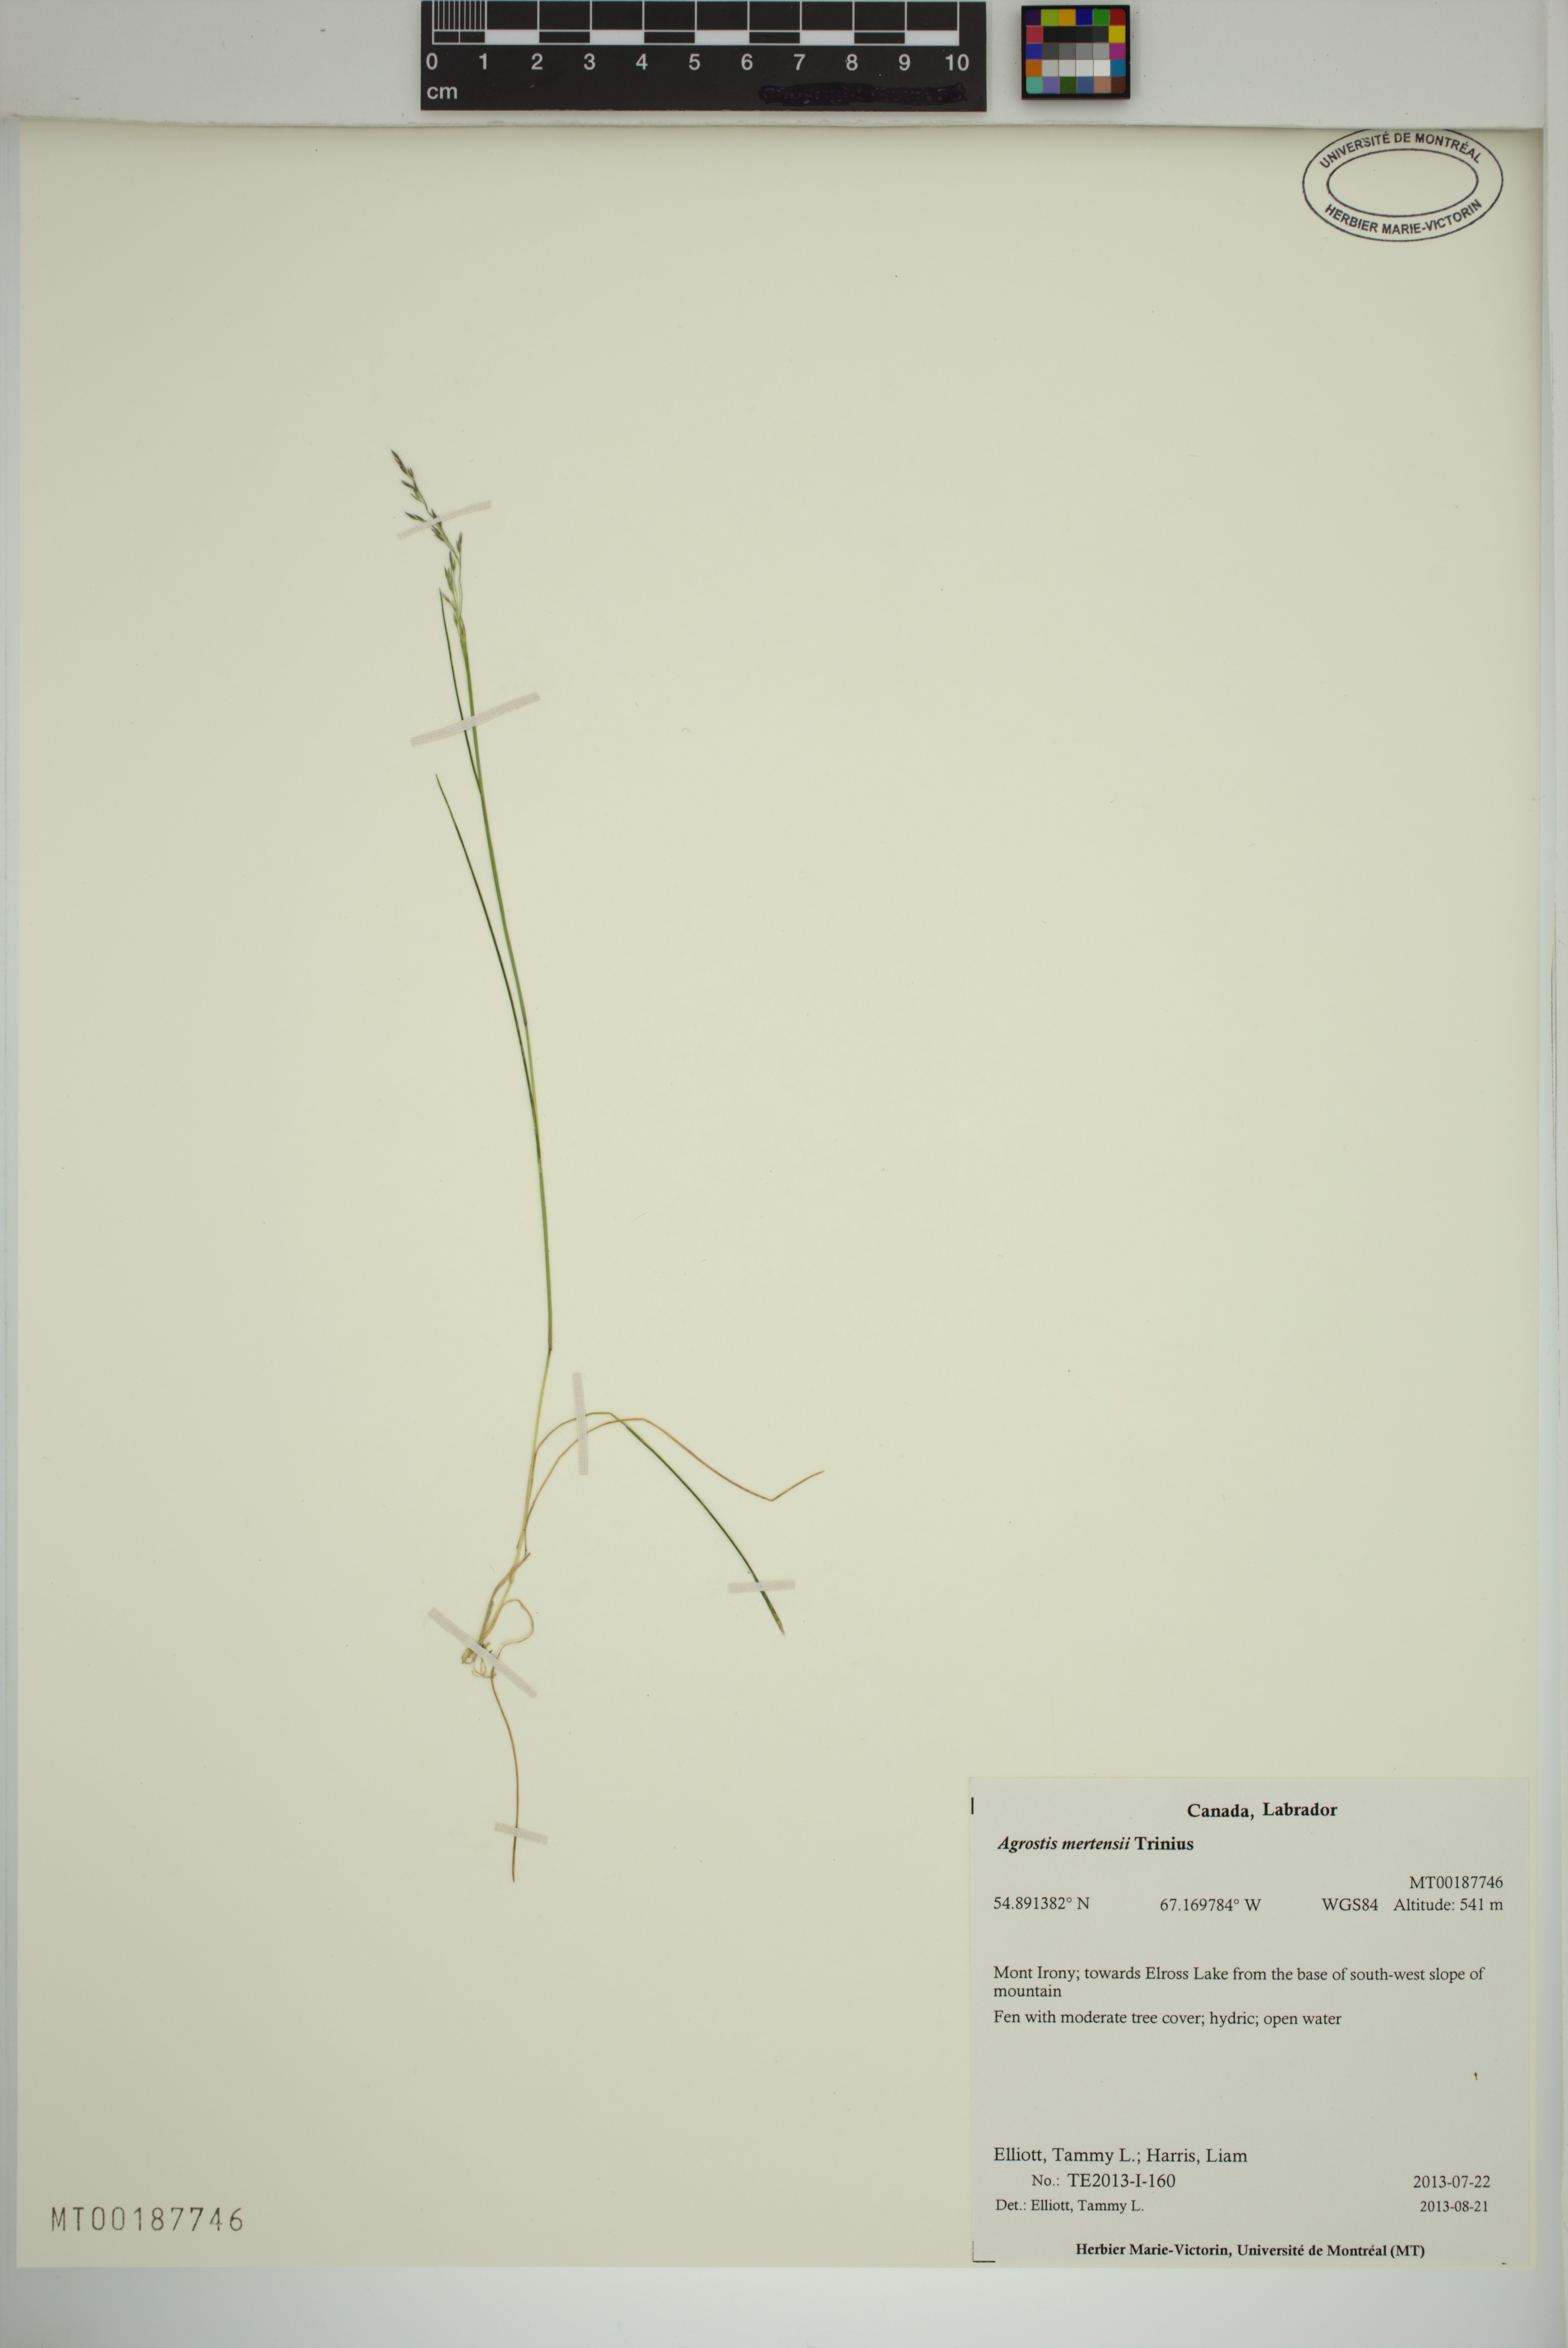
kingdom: Plantae
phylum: Tracheophyta
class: Liliopsida
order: Poales
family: Poaceae
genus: Agrostis
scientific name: Agrostis mertensii
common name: Northern bent
